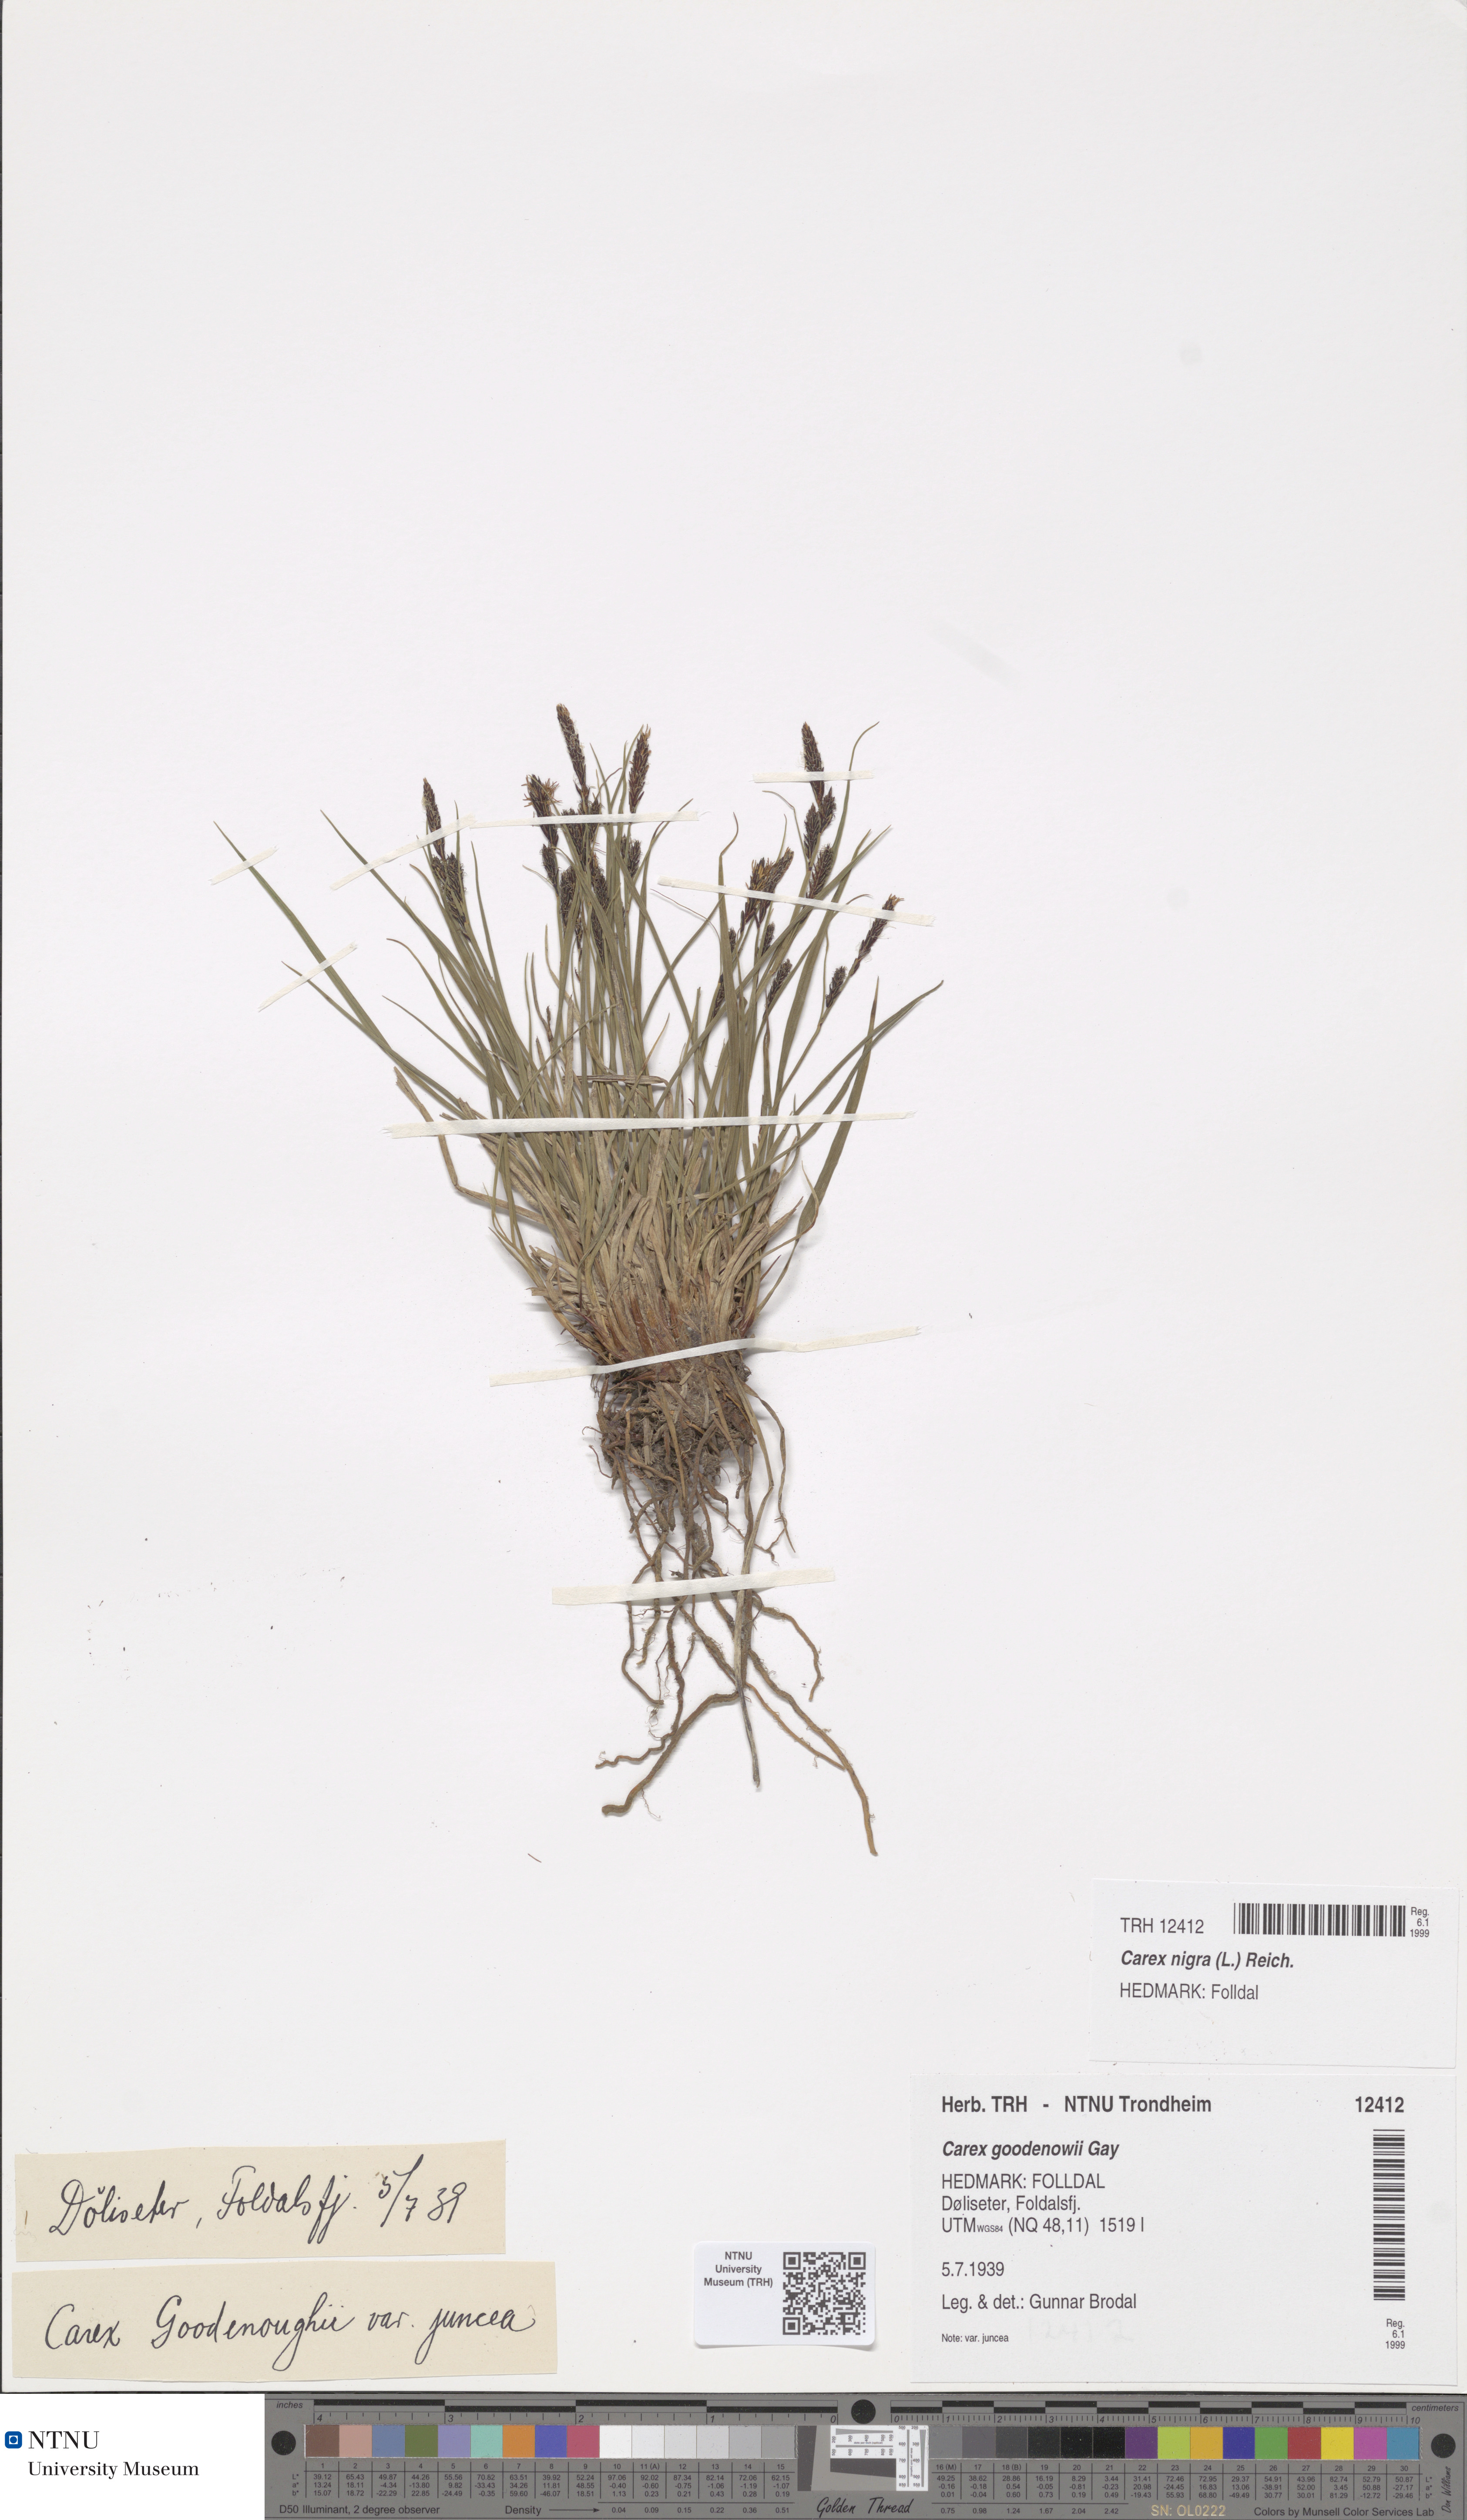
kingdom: Plantae
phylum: Tracheophyta
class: Liliopsida
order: Poales
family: Cyperaceae
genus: Carex
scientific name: Carex nigra
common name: Common sedge
